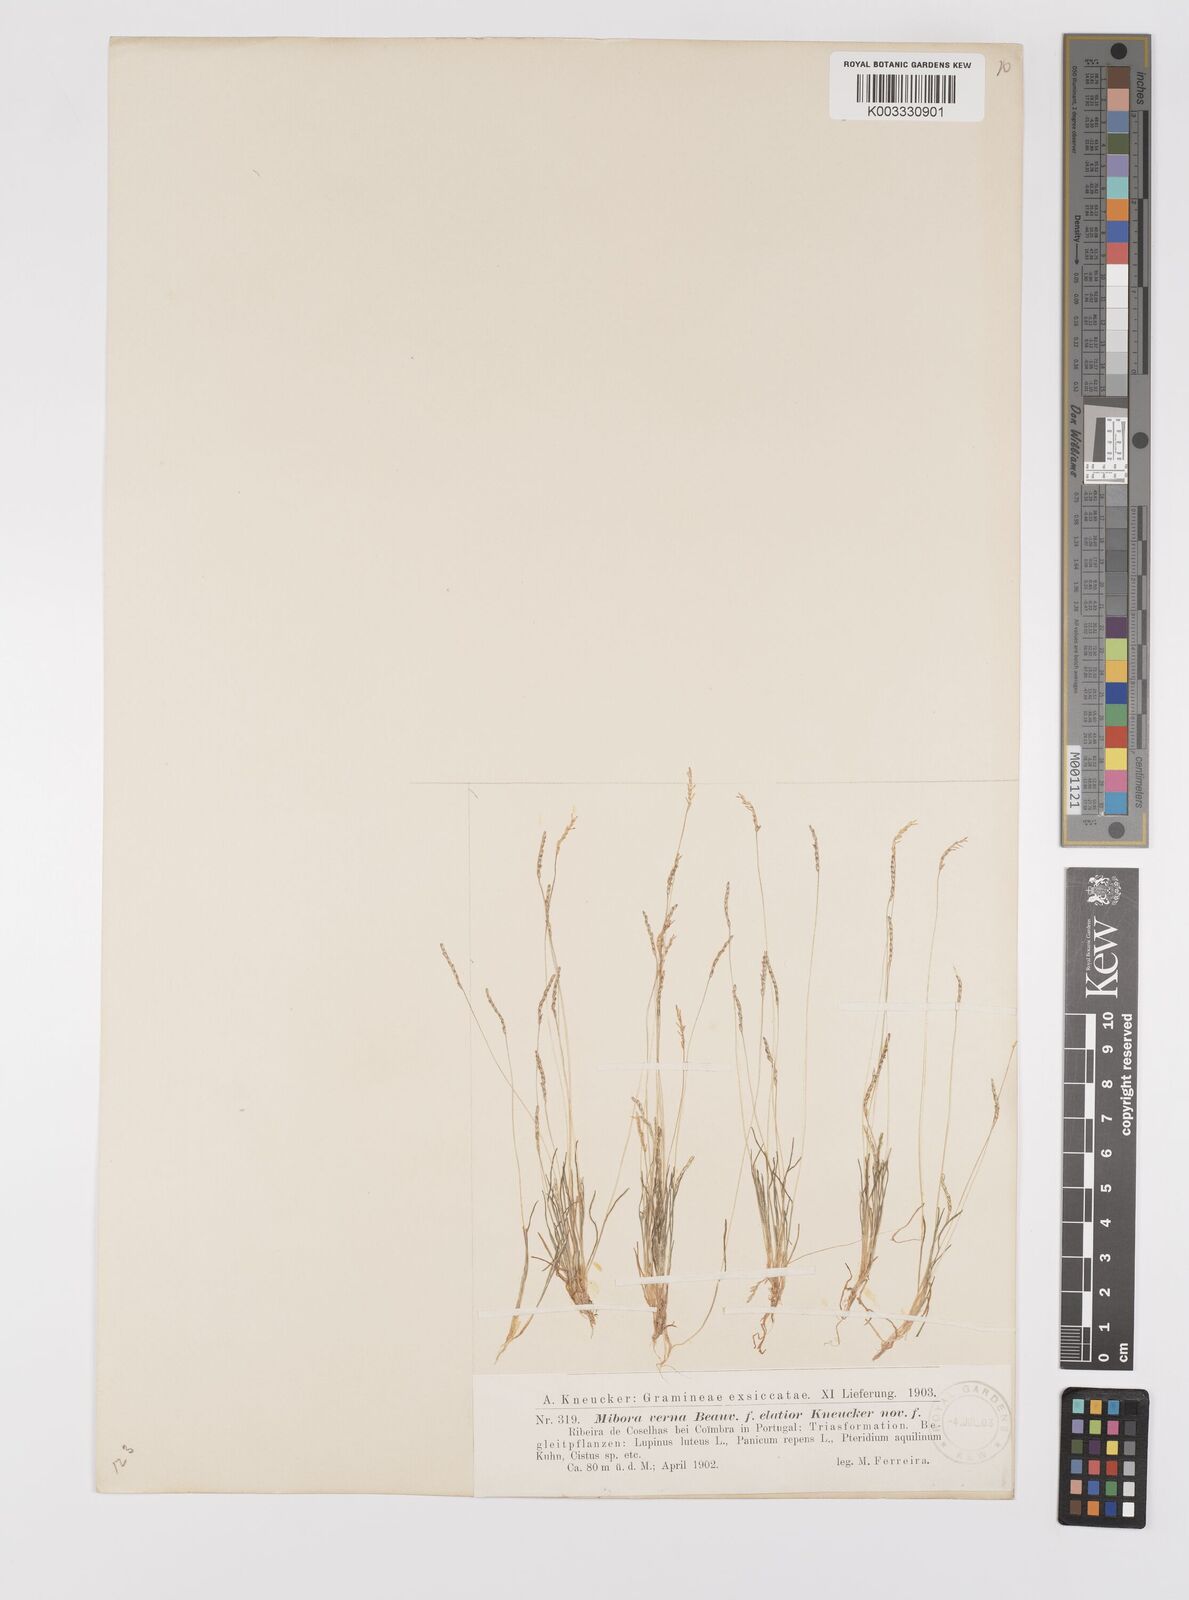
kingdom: Plantae
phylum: Tracheophyta
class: Liliopsida
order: Poales
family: Poaceae
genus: Mibora
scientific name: Mibora minima
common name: Early sand-grass
